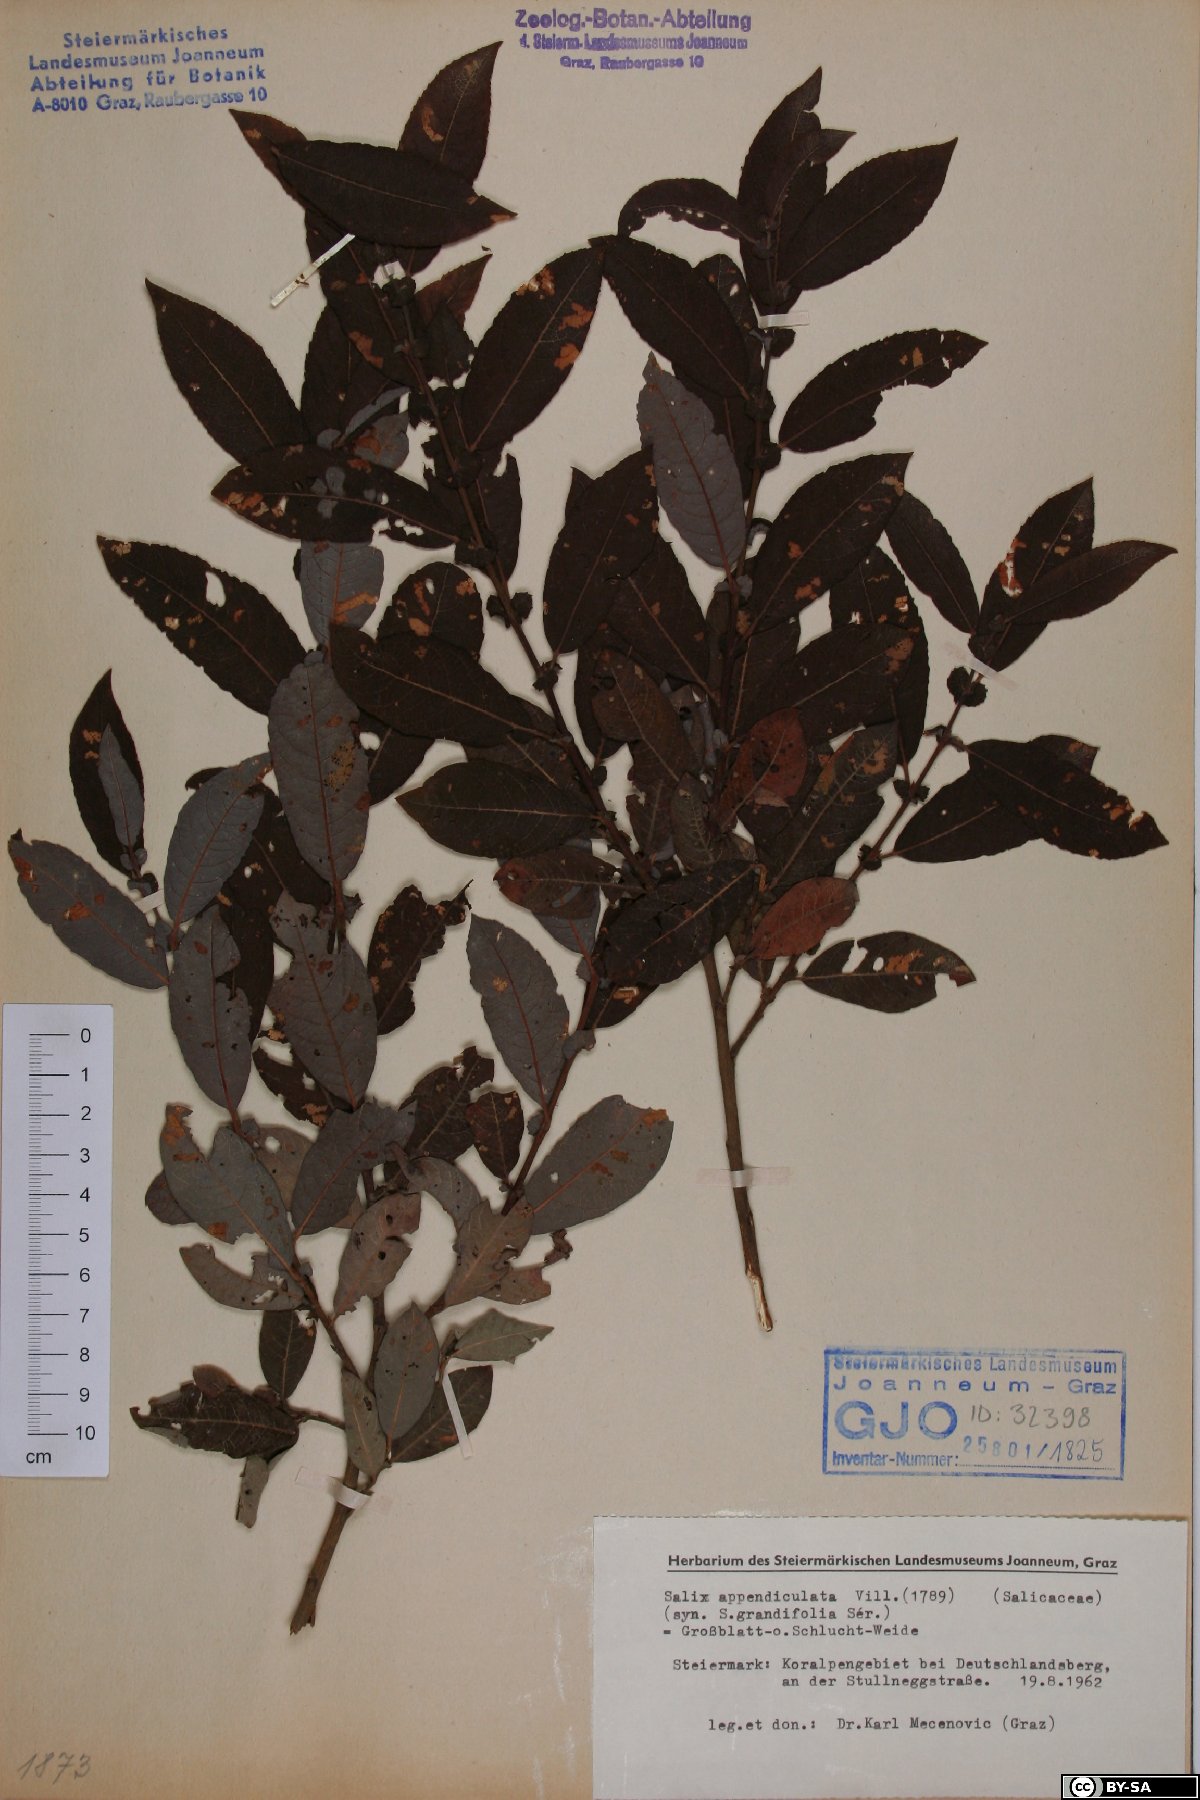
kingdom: Plantae
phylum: Tracheophyta
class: Magnoliopsida
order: Malpighiales
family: Salicaceae
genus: Salix
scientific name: Salix appendiculata
